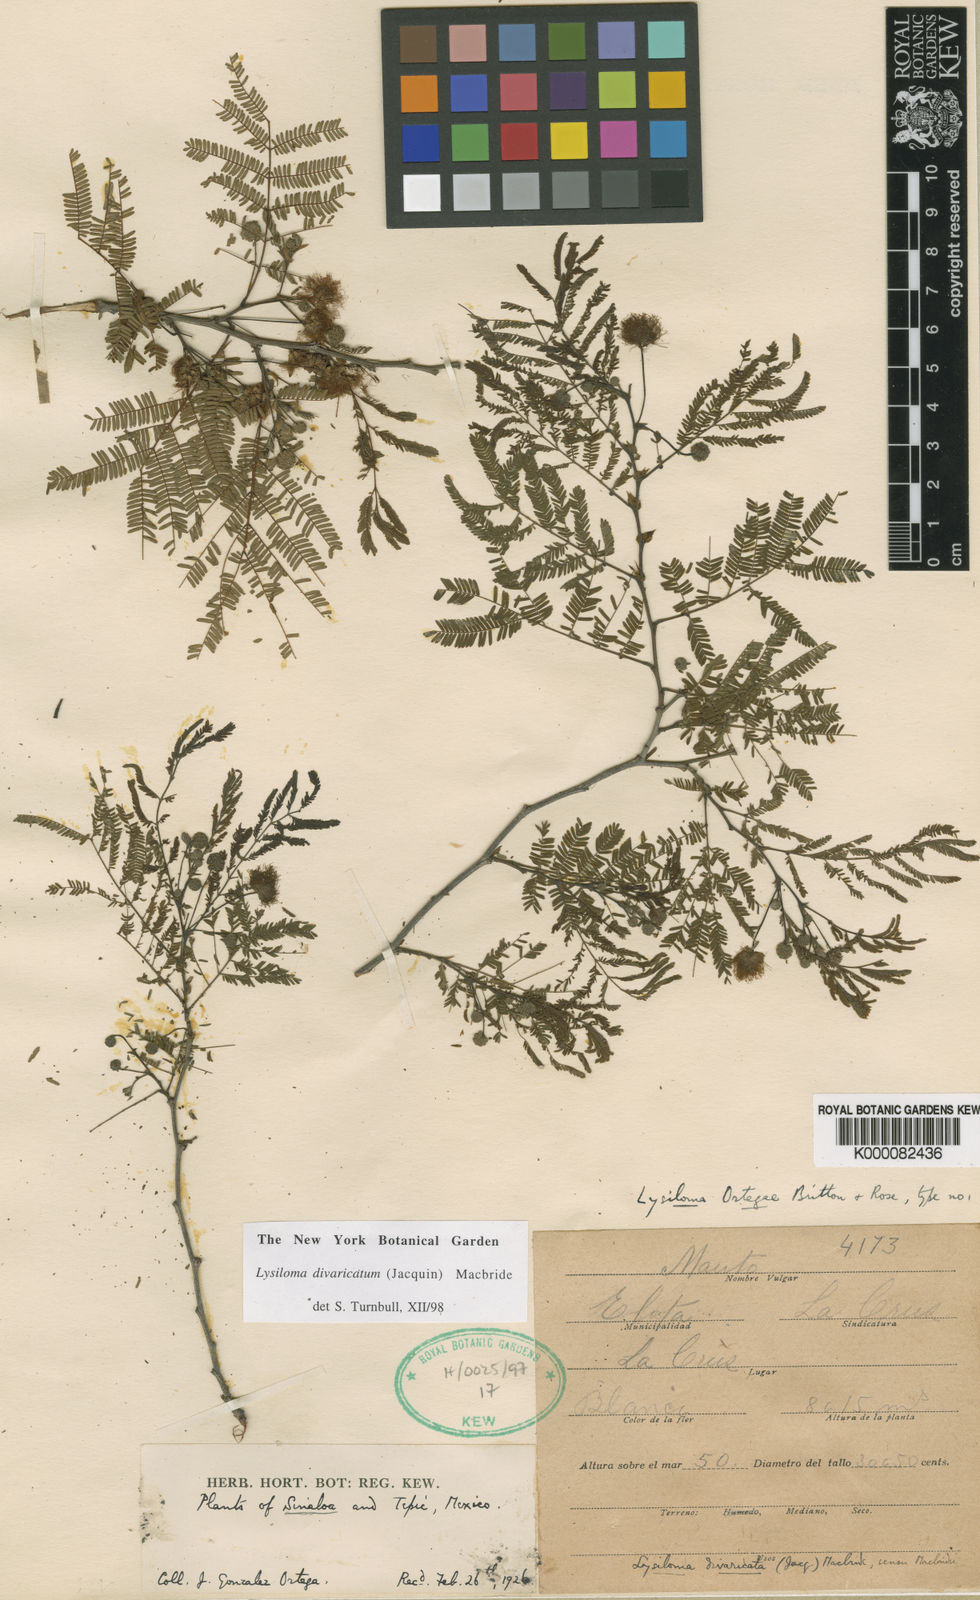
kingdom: Plantae
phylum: Tracheophyta
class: Magnoliopsida
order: Fabales
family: Fabaceae
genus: Lysiloma
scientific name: Lysiloma divaricatum
